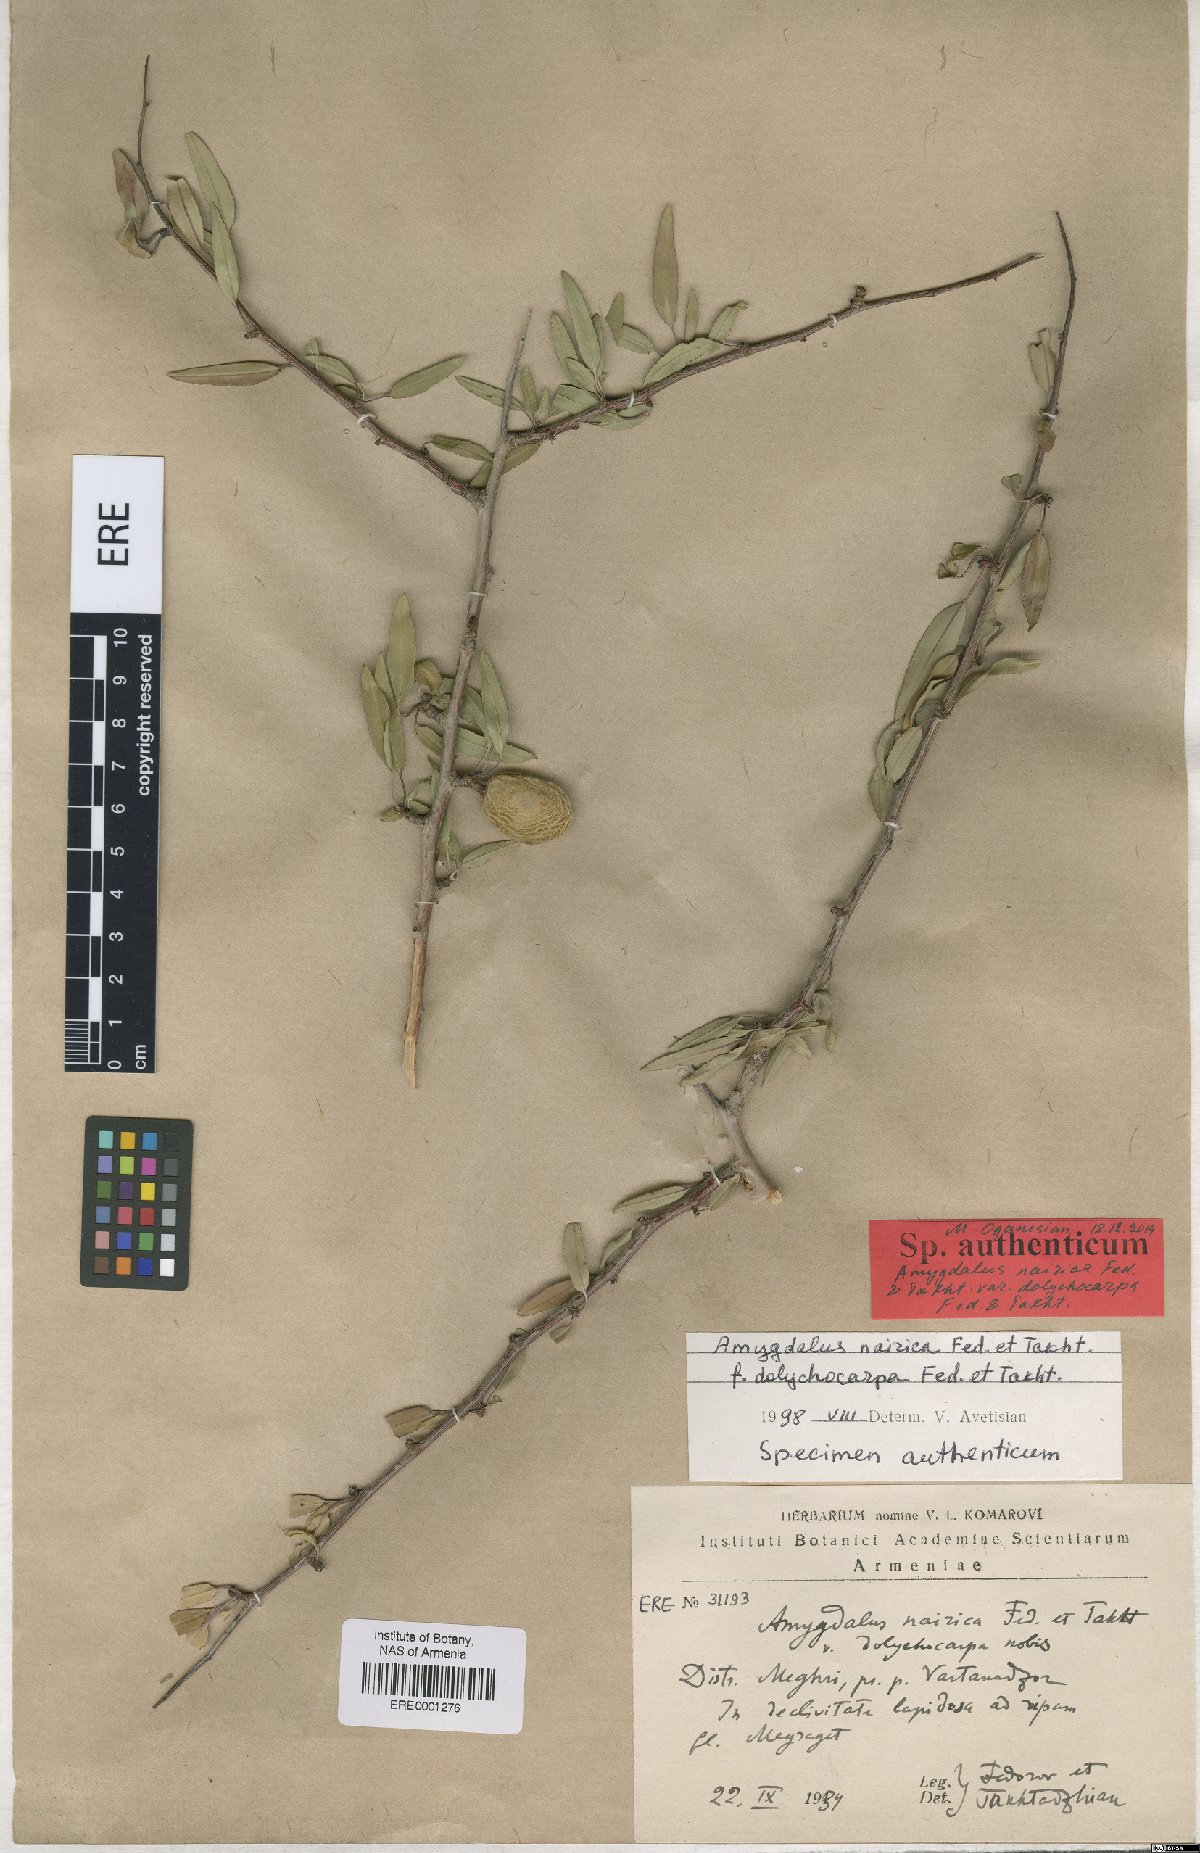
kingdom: Plantae
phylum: Tracheophyta
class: Magnoliopsida
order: Rosales
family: Rosaceae
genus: Prunus
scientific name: Prunus nairica
